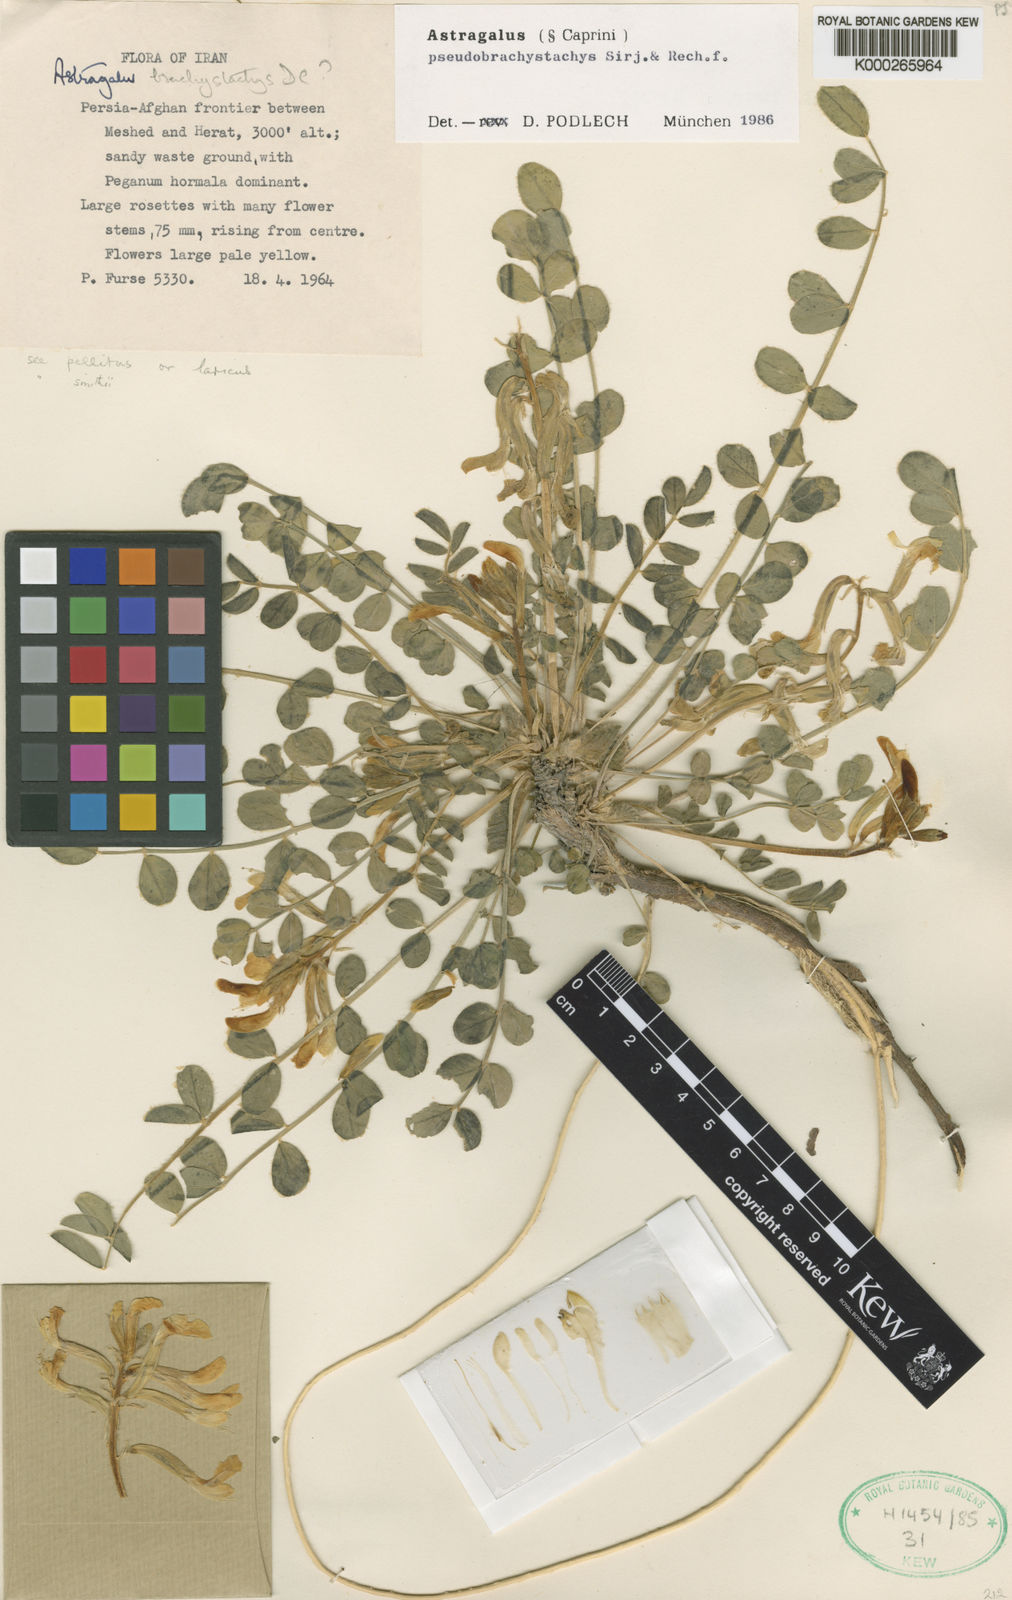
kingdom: Plantae
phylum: Tracheophyta
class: Magnoliopsida
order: Fabales
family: Fabaceae
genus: Astragalus
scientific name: Astragalus gompholobium
